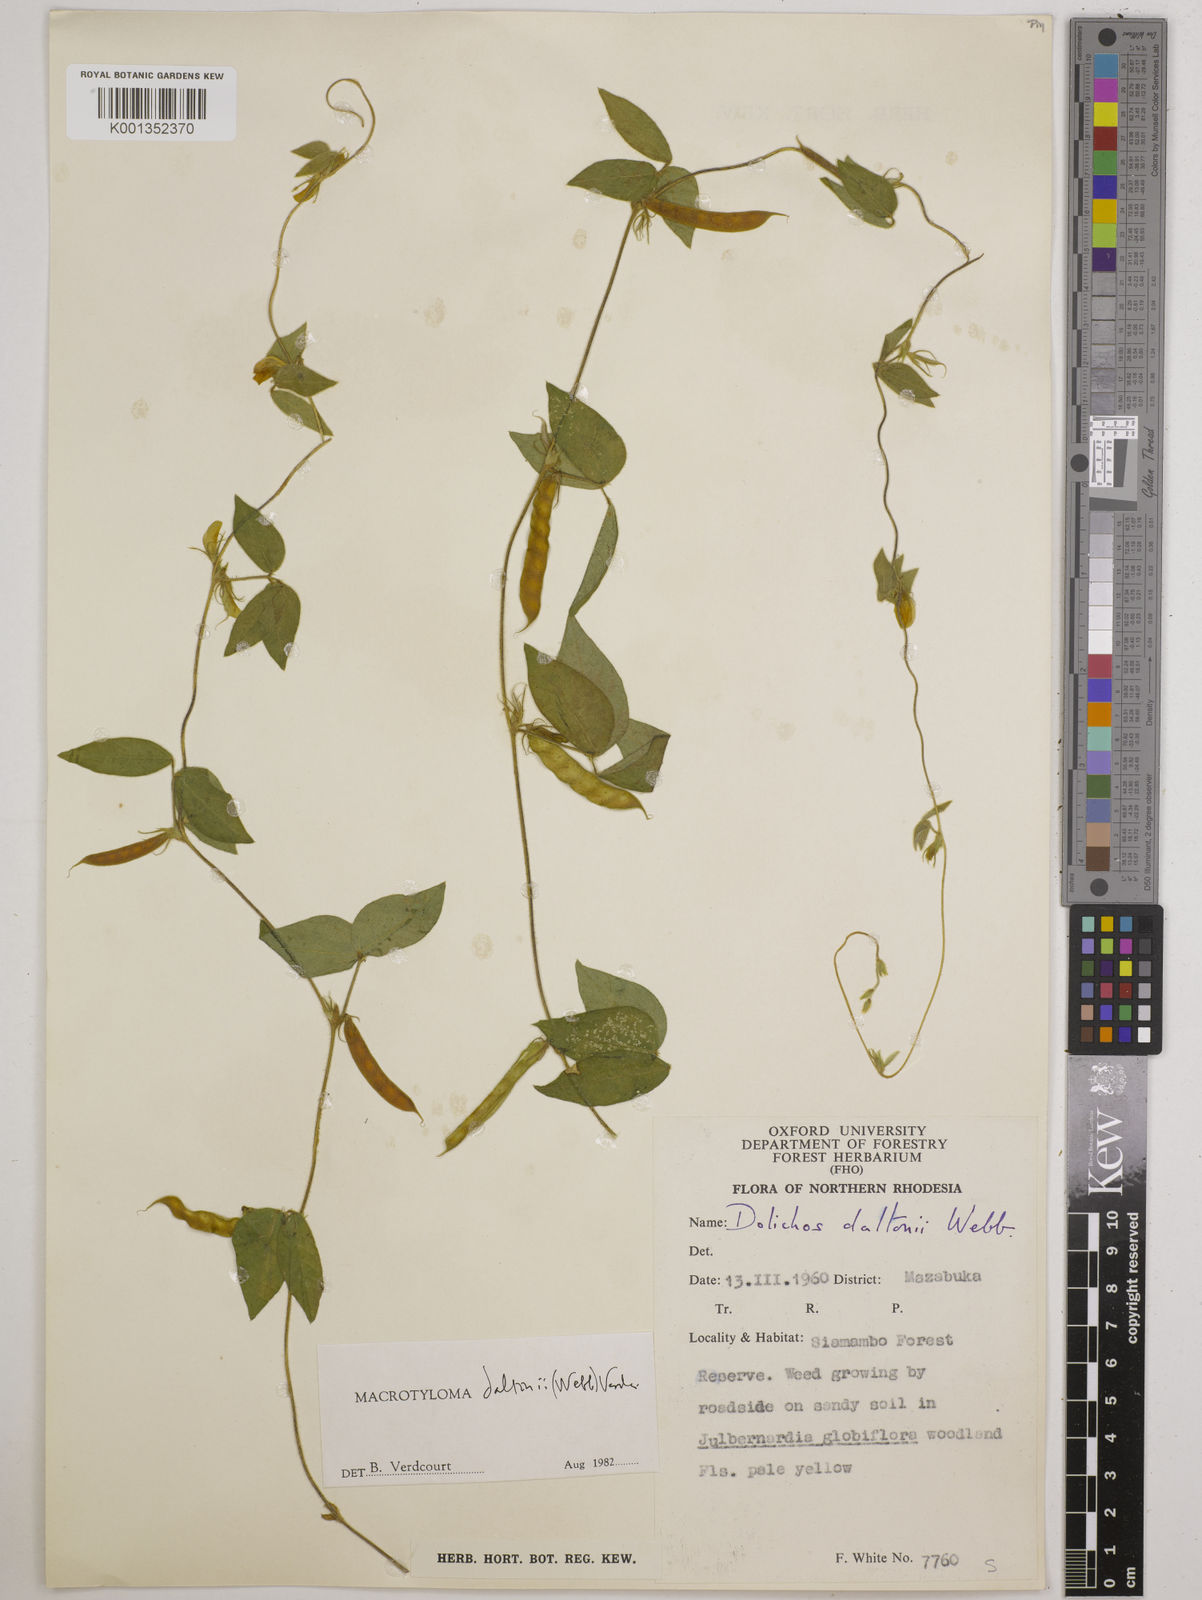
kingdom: Plantae
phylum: Tracheophyta
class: Magnoliopsida
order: Fabales
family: Fabaceae
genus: Macrotyloma
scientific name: Macrotyloma daltonii
